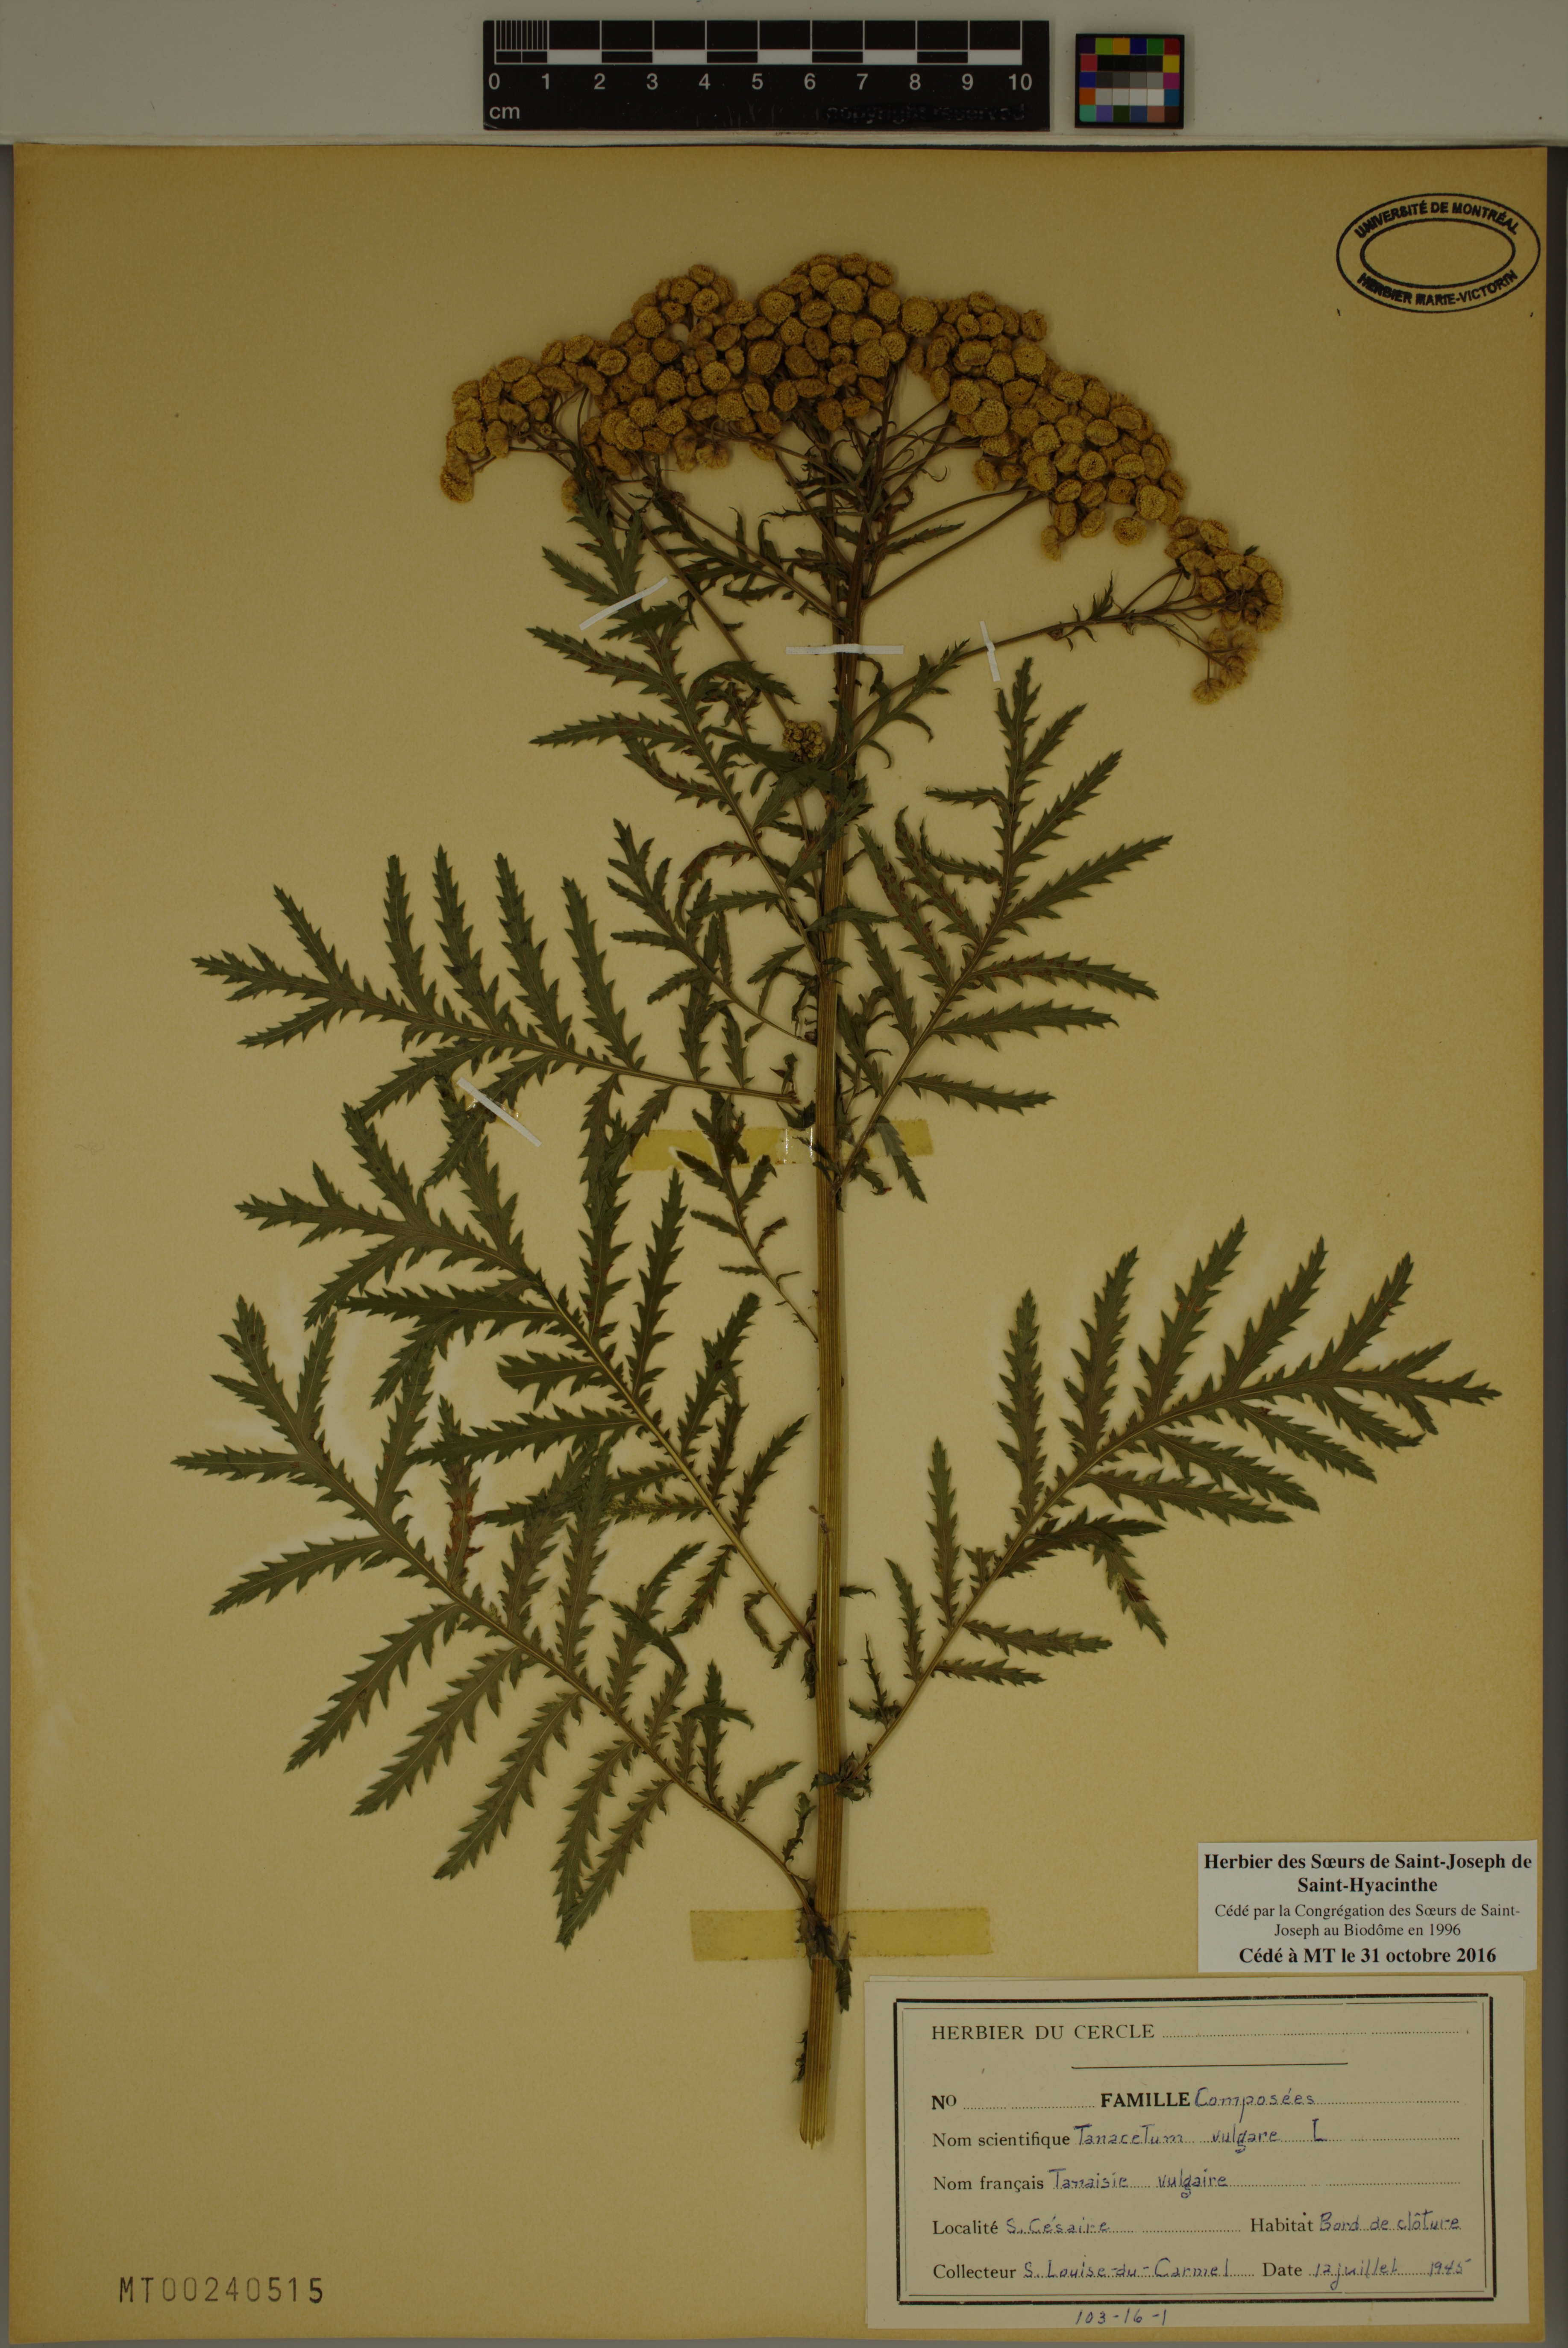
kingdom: Plantae
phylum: Tracheophyta
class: Magnoliopsida
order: Asterales
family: Asteraceae
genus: Tanacetum
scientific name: Tanacetum vulgare
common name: Common tansy
